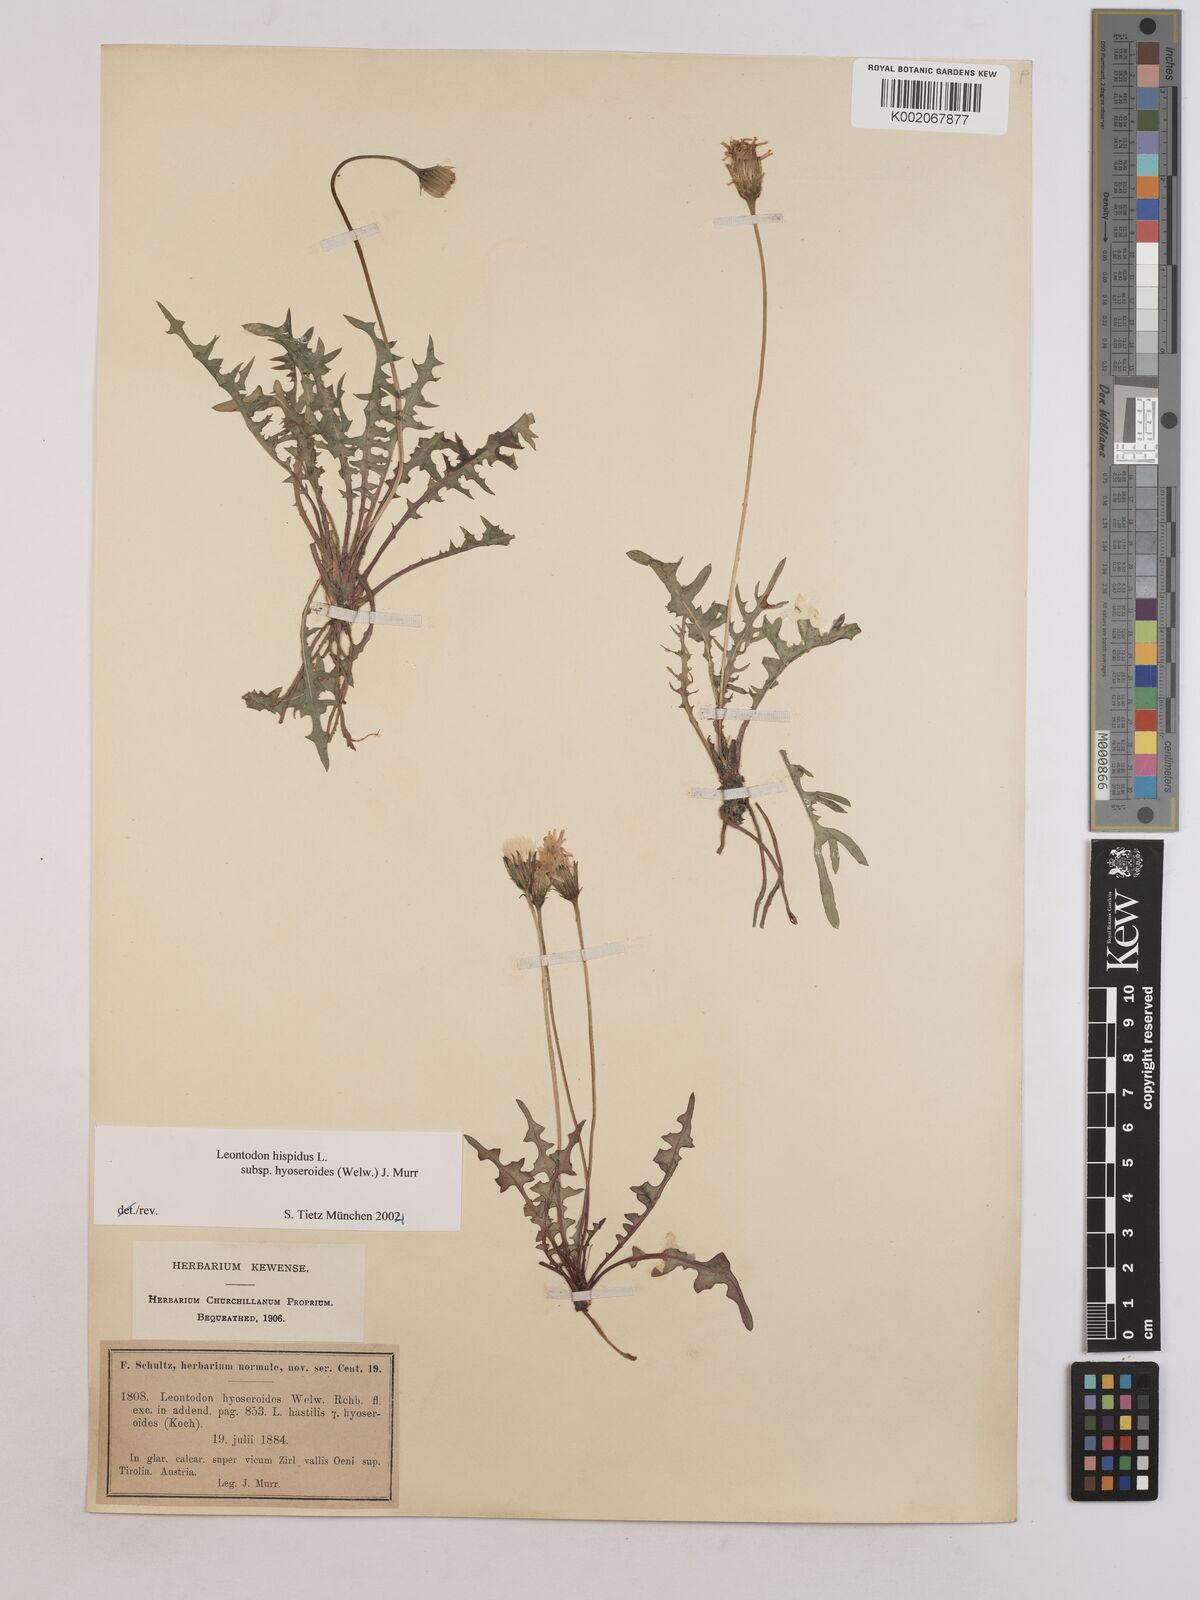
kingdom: Plantae
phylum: Tracheophyta
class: Magnoliopsida
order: Asterales
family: Asteraceae
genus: Leontodon
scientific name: Leontodon hispidus
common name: Rough hawkbit
